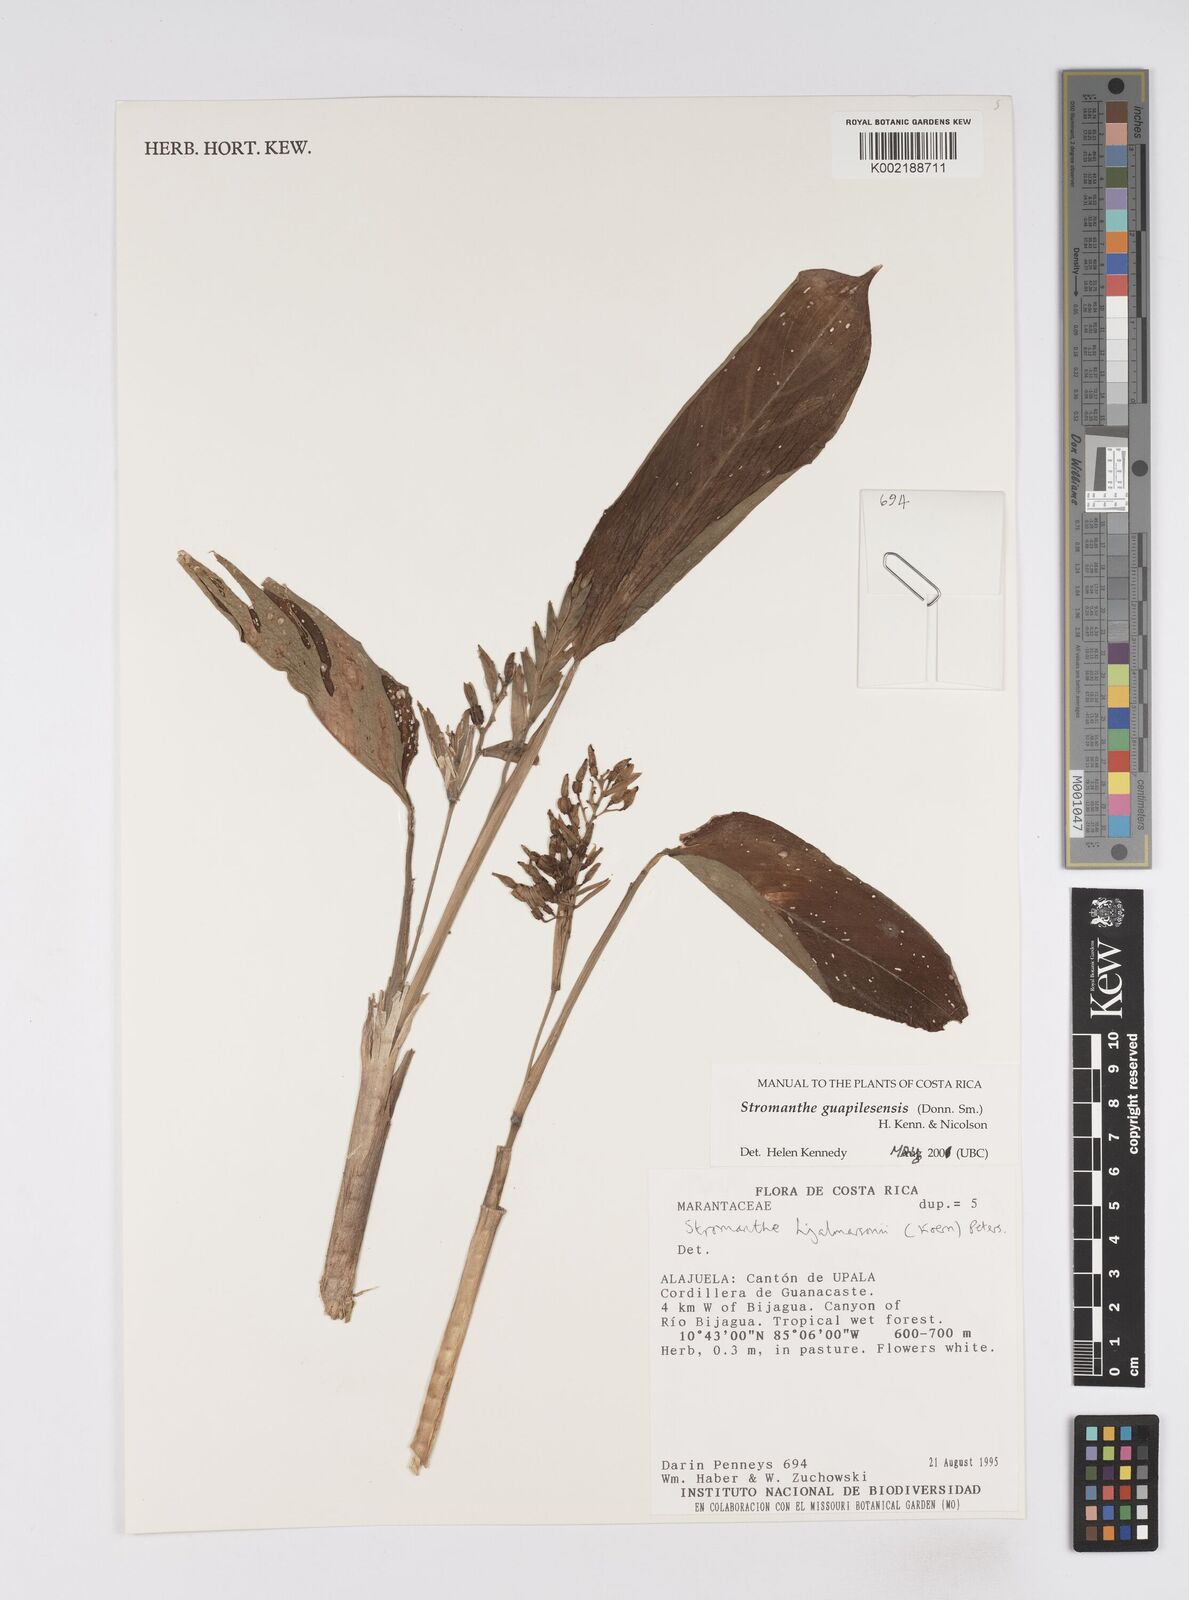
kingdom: Plantae
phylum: Tracheophyta
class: Liliopsida
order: Zingiberales
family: Marantaceae
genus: Stromanthe
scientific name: Stromanthe guapilesensis
